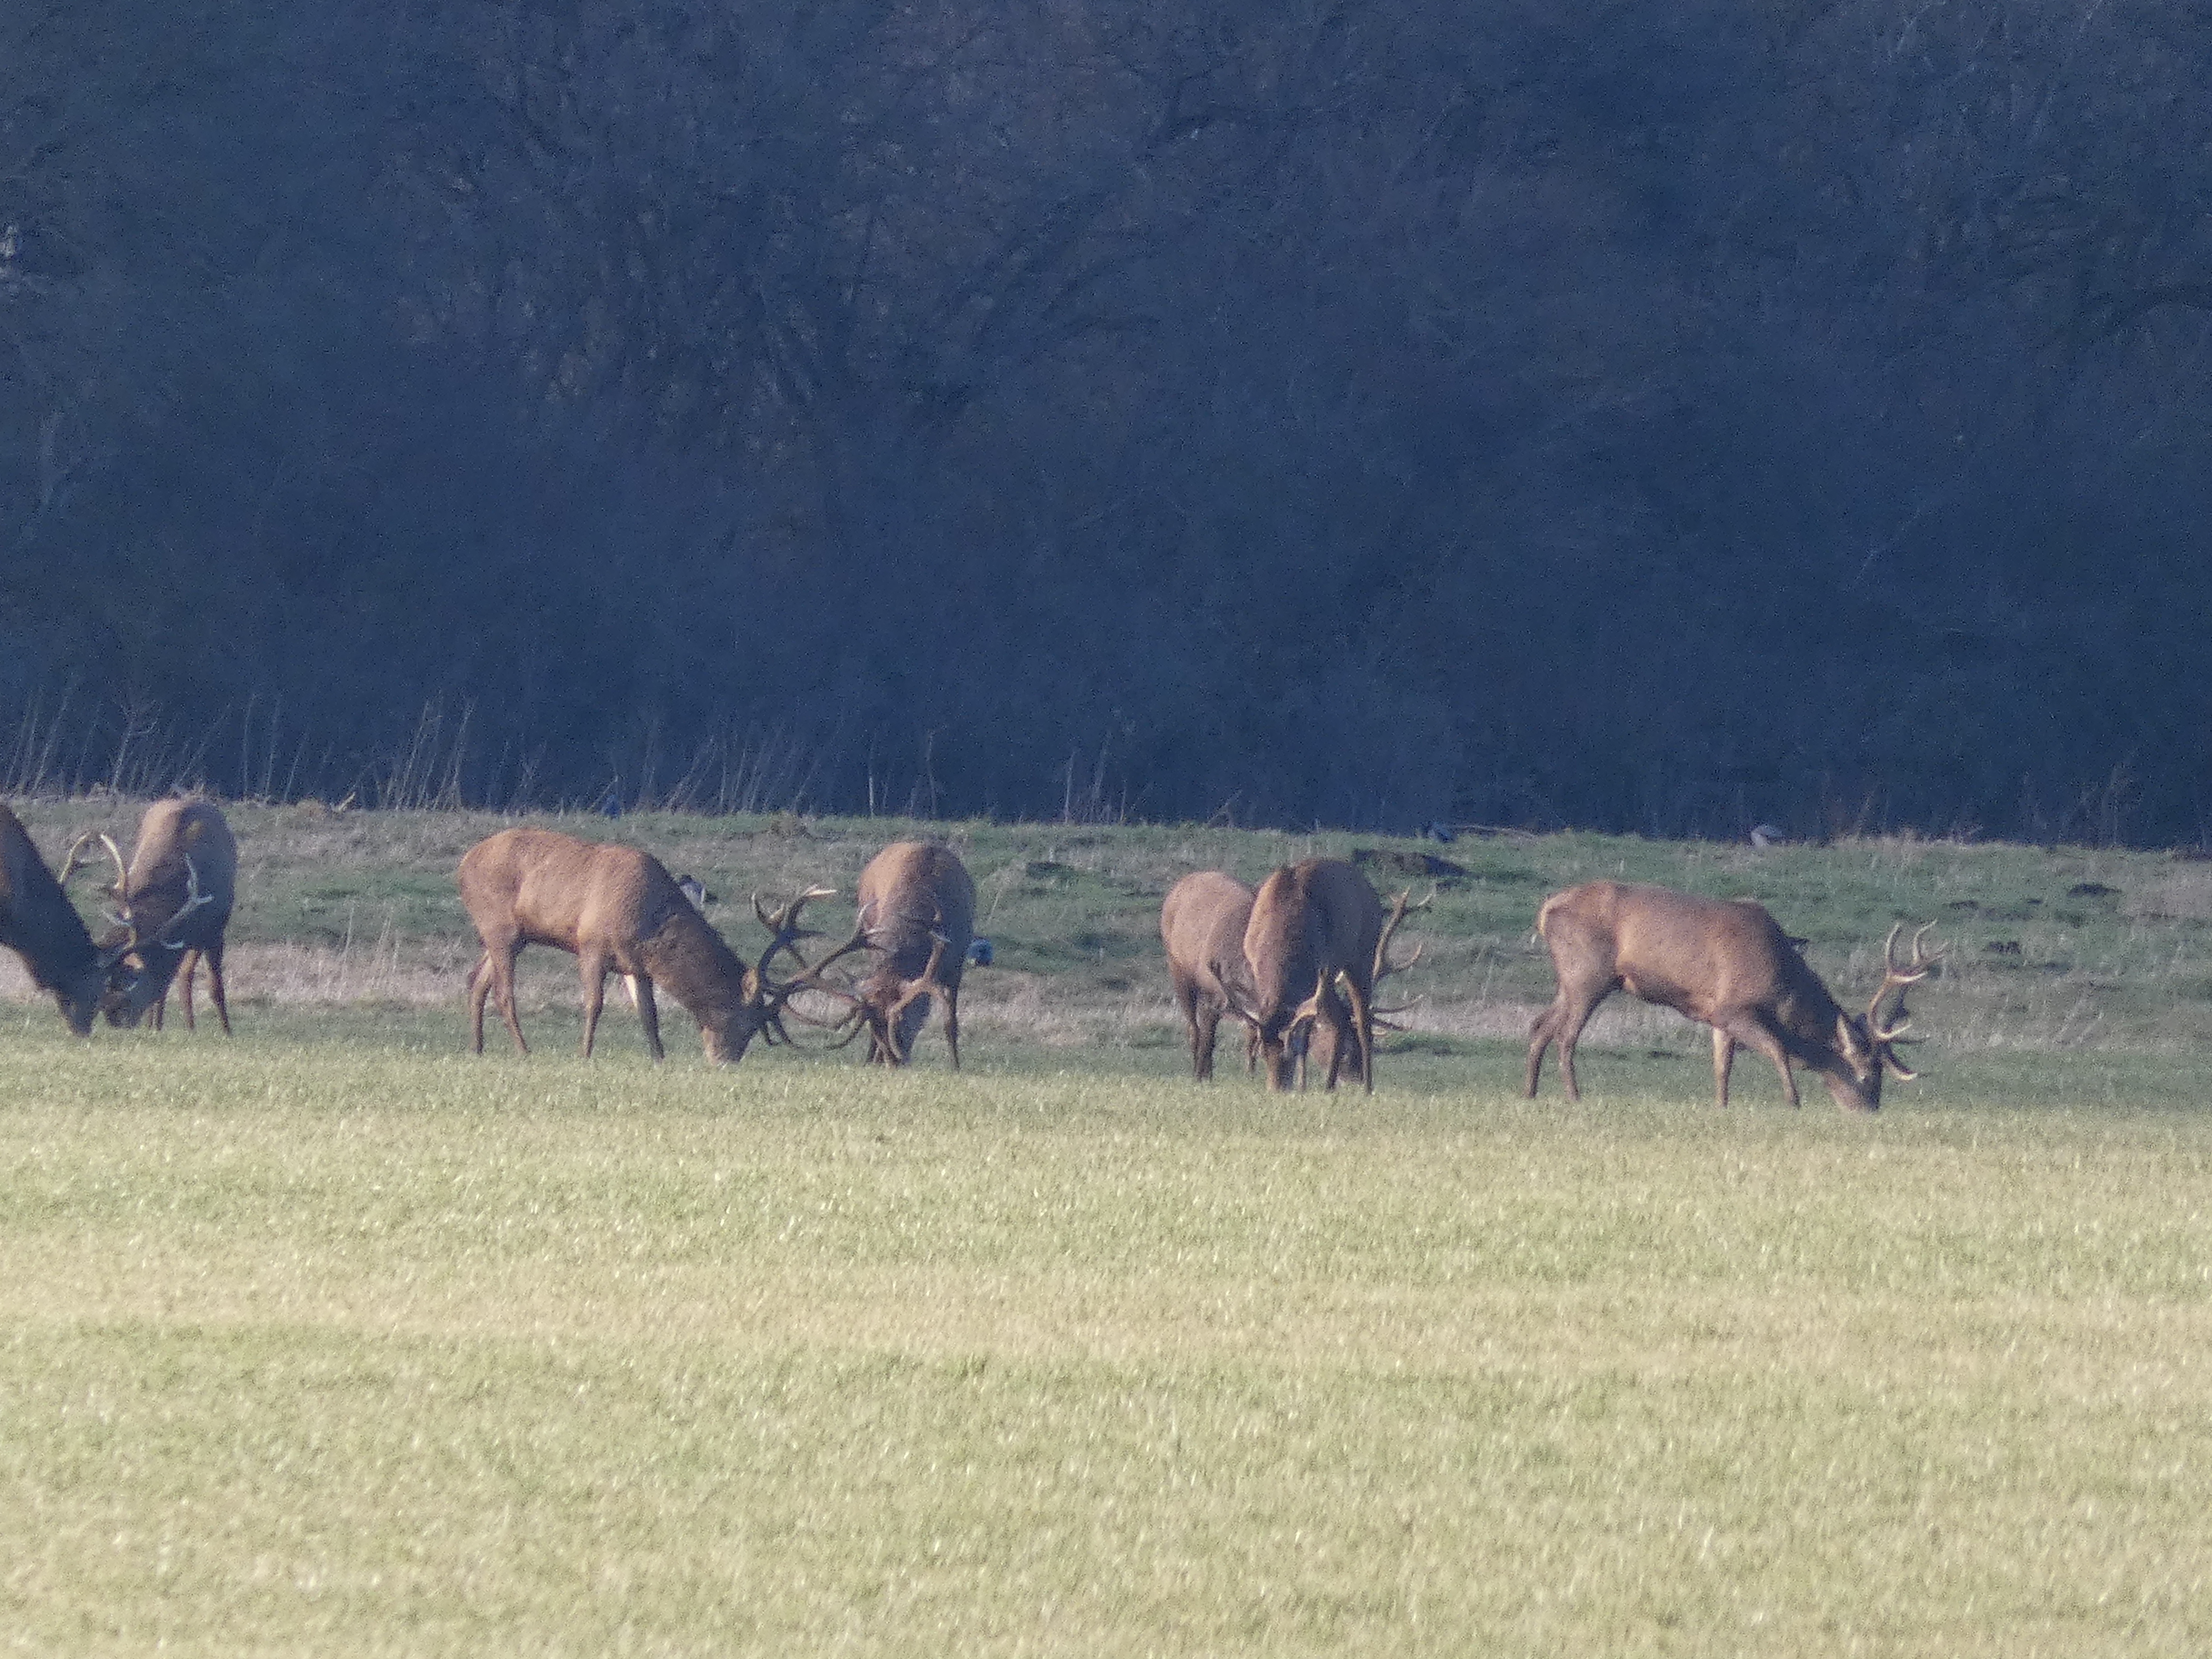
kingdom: Animalia
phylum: Chordata
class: Mammalia
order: Artiodactyla
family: Cervidae
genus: Cervus
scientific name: Cervus elaphus
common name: Krondyr
